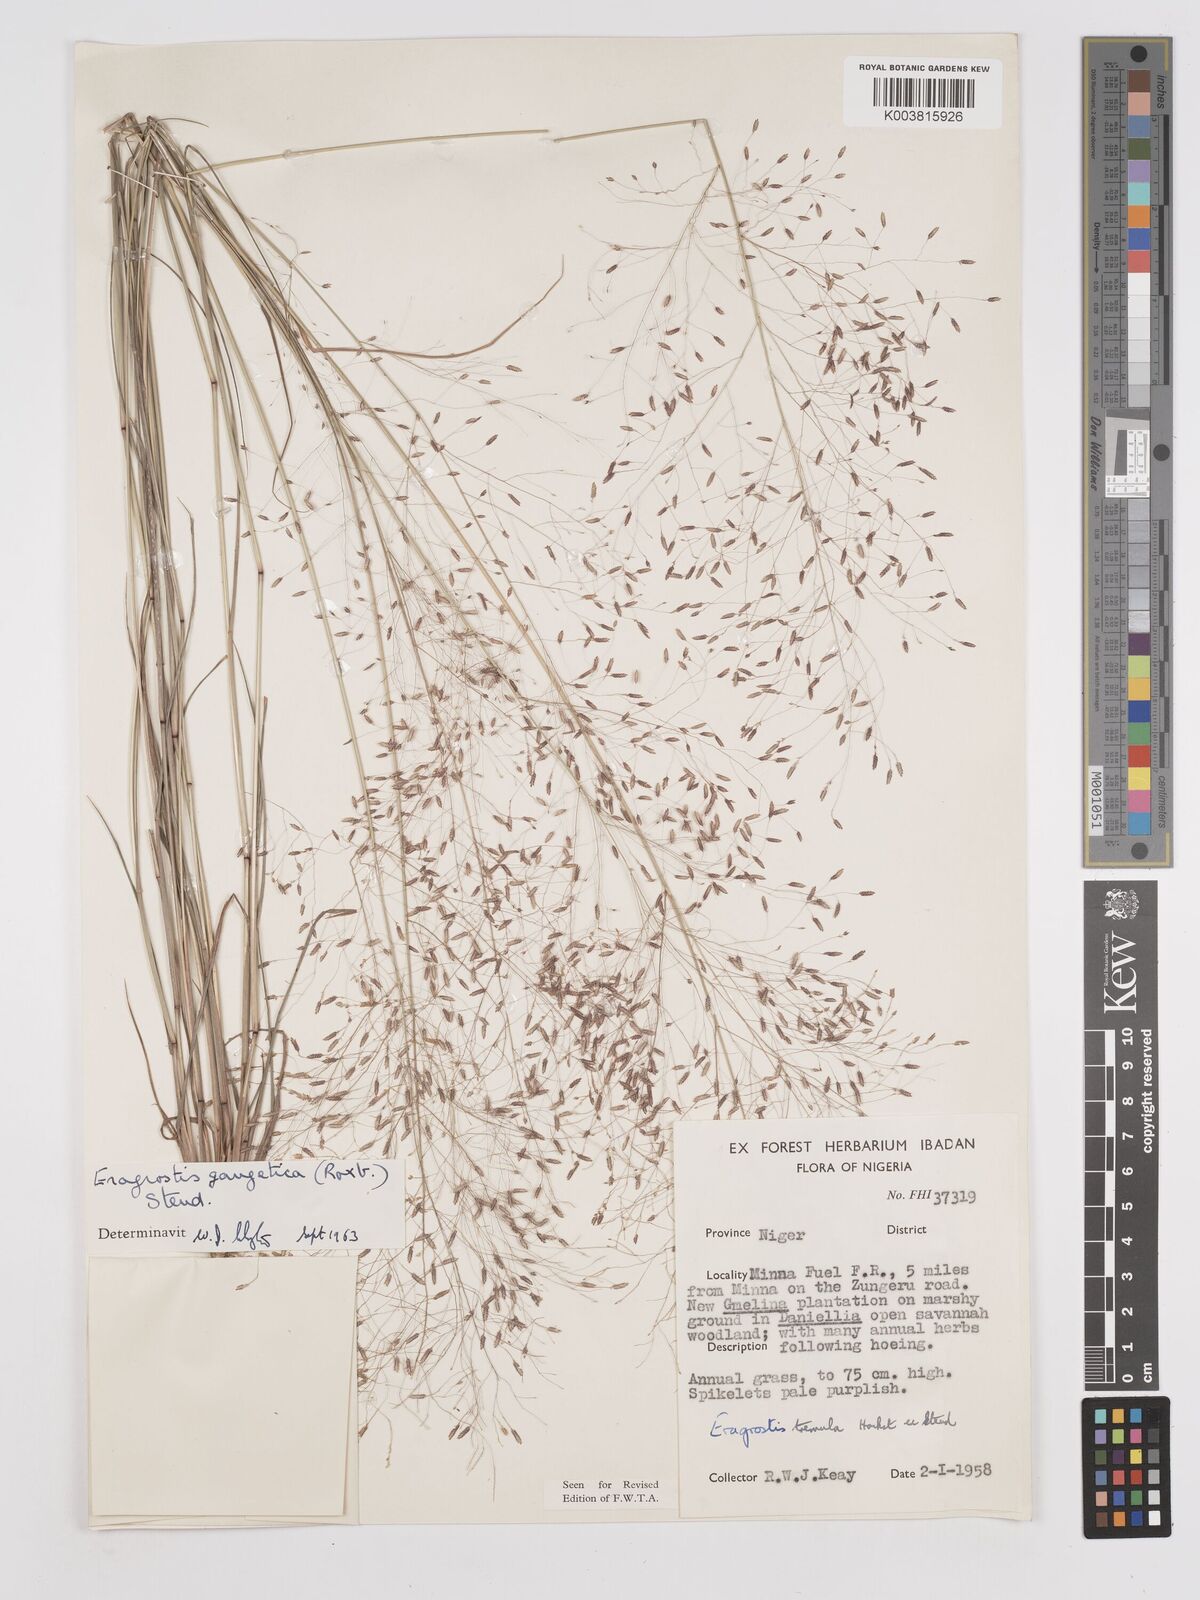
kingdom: Plantae
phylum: Tracheophyta
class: Liliopsida
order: Poales
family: Poaceae
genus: Eragrostis
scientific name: Eragrostis gangetica
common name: Slimflower lovegrass
